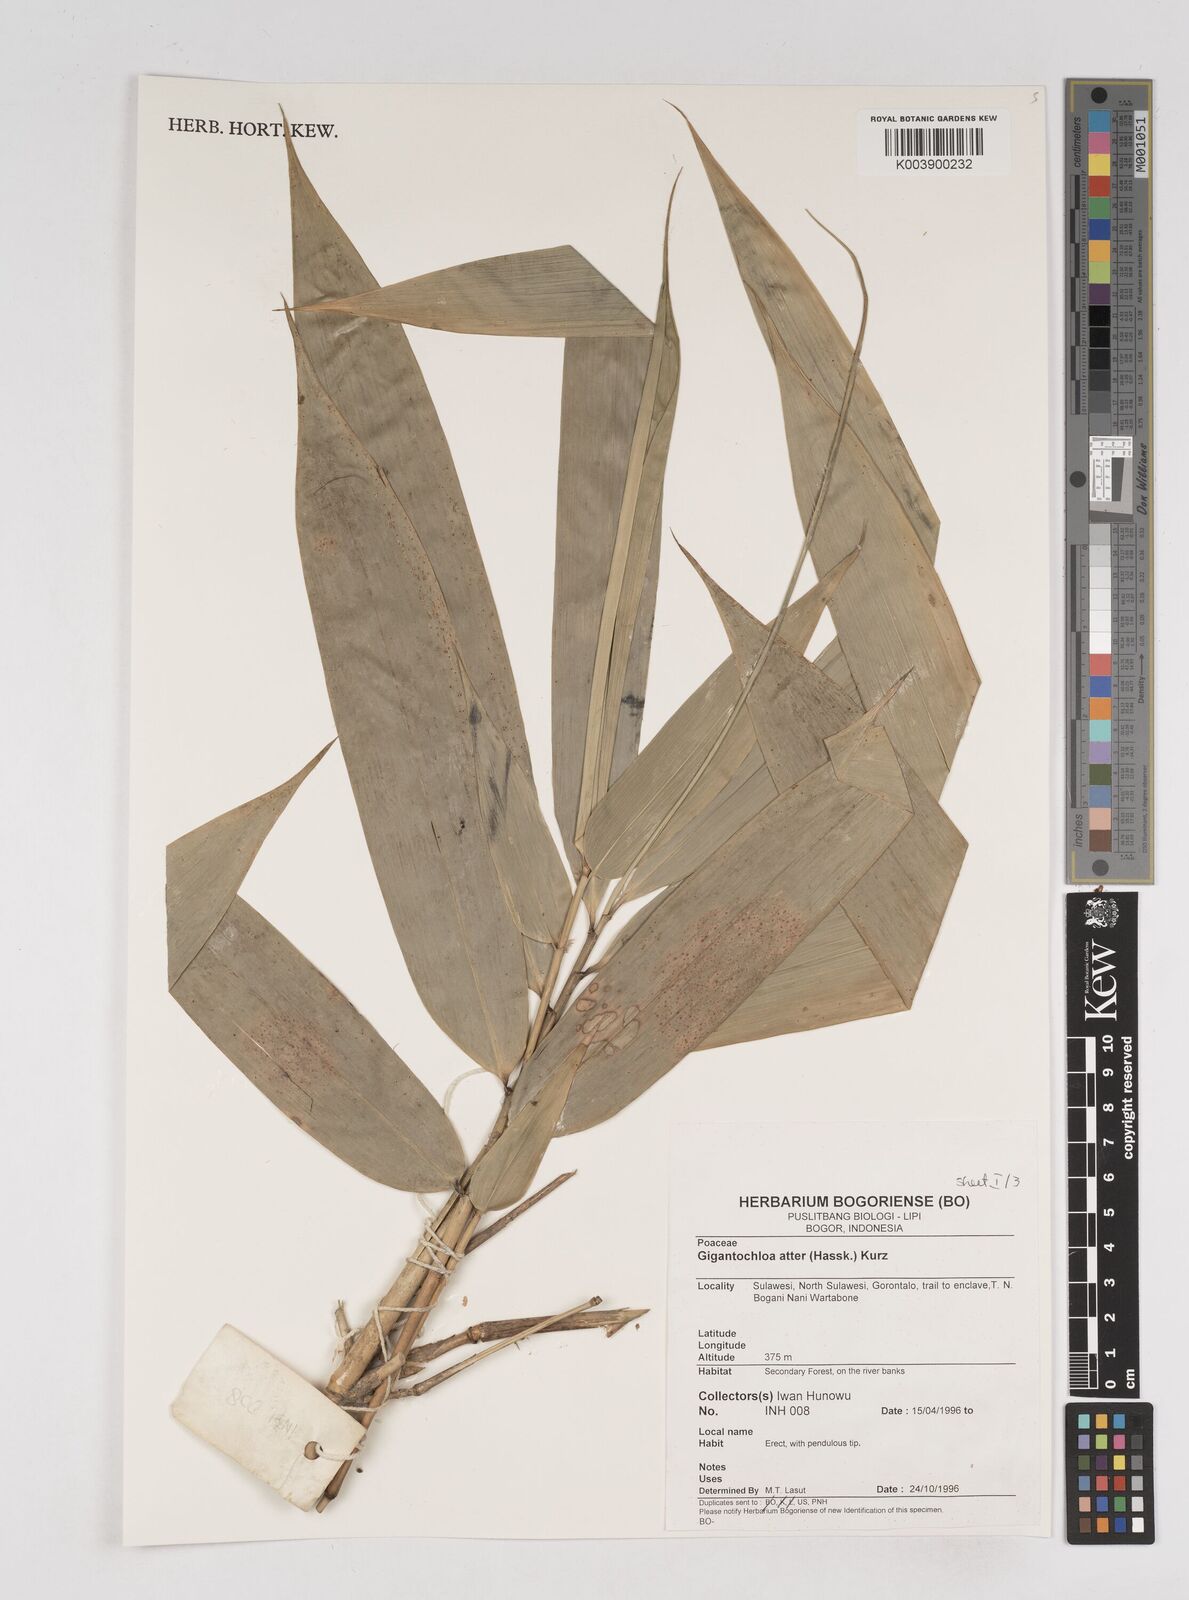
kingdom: Plantae
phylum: Tracheophyta
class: Liliopsida
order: Poales
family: Poaceae
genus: Gigantochloa
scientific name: Gigantochloa atter
